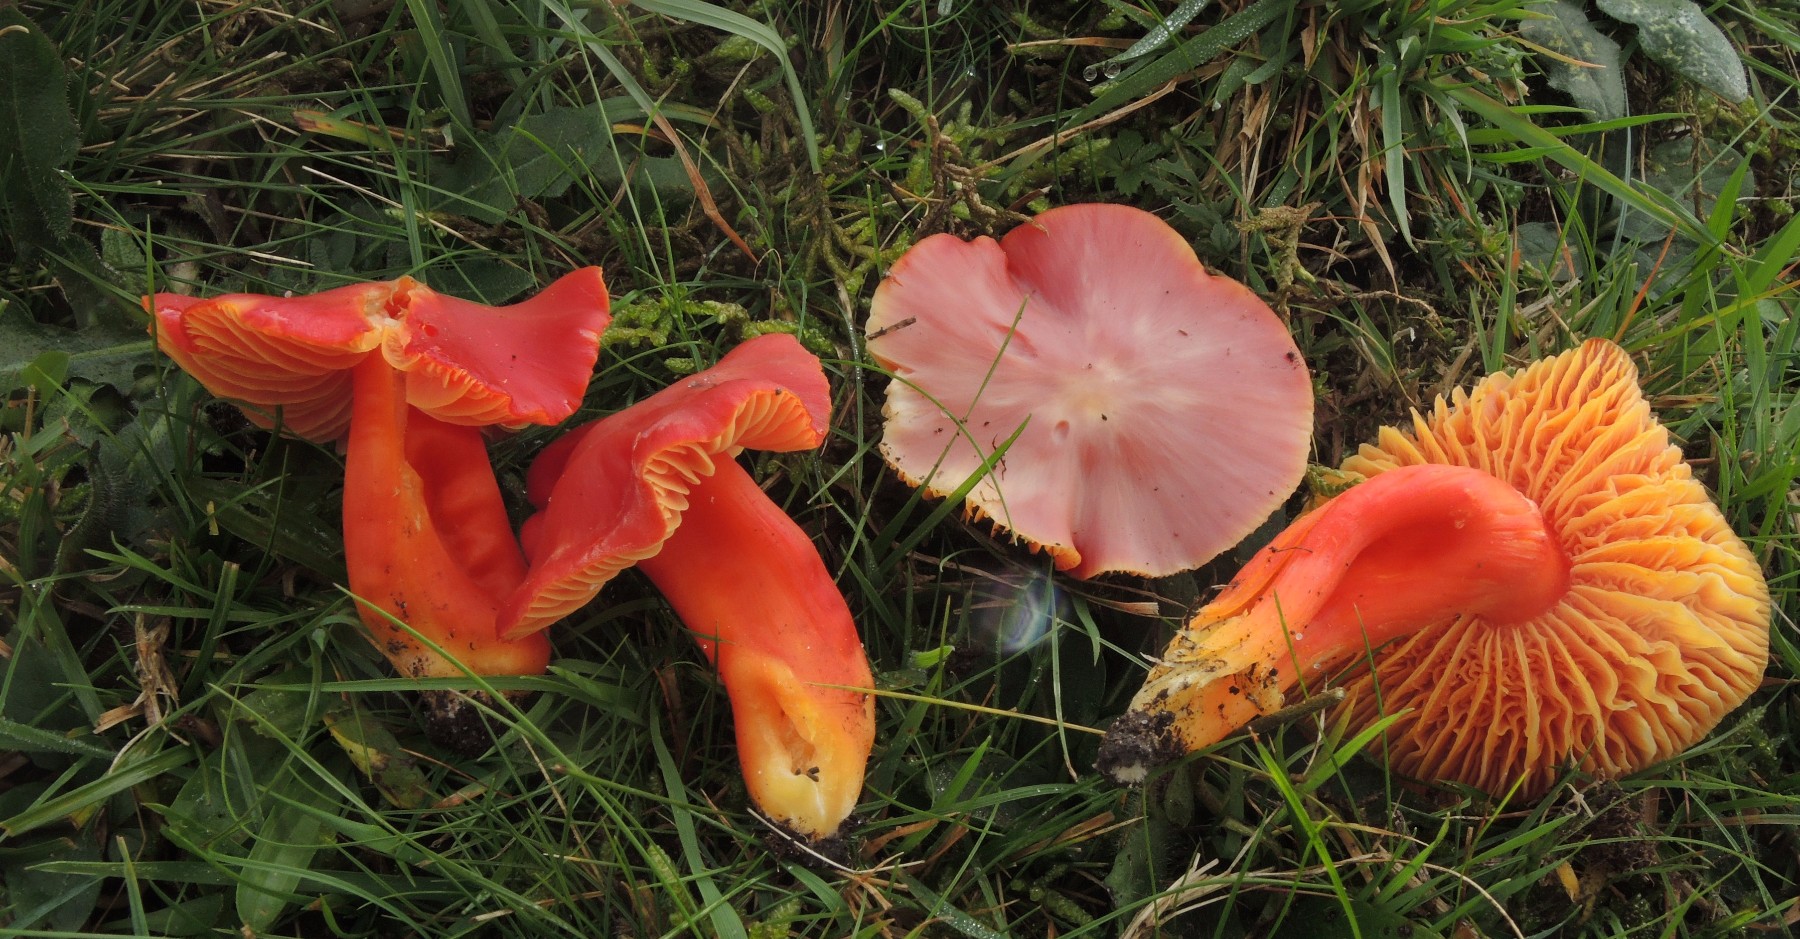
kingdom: Fungi
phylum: Basidiomycota
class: Agaricomycetes
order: Agaricales
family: Hygrophoraceae
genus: Hygrocybe
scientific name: Hygrocybe splendidissima
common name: knaldrød vokshat
